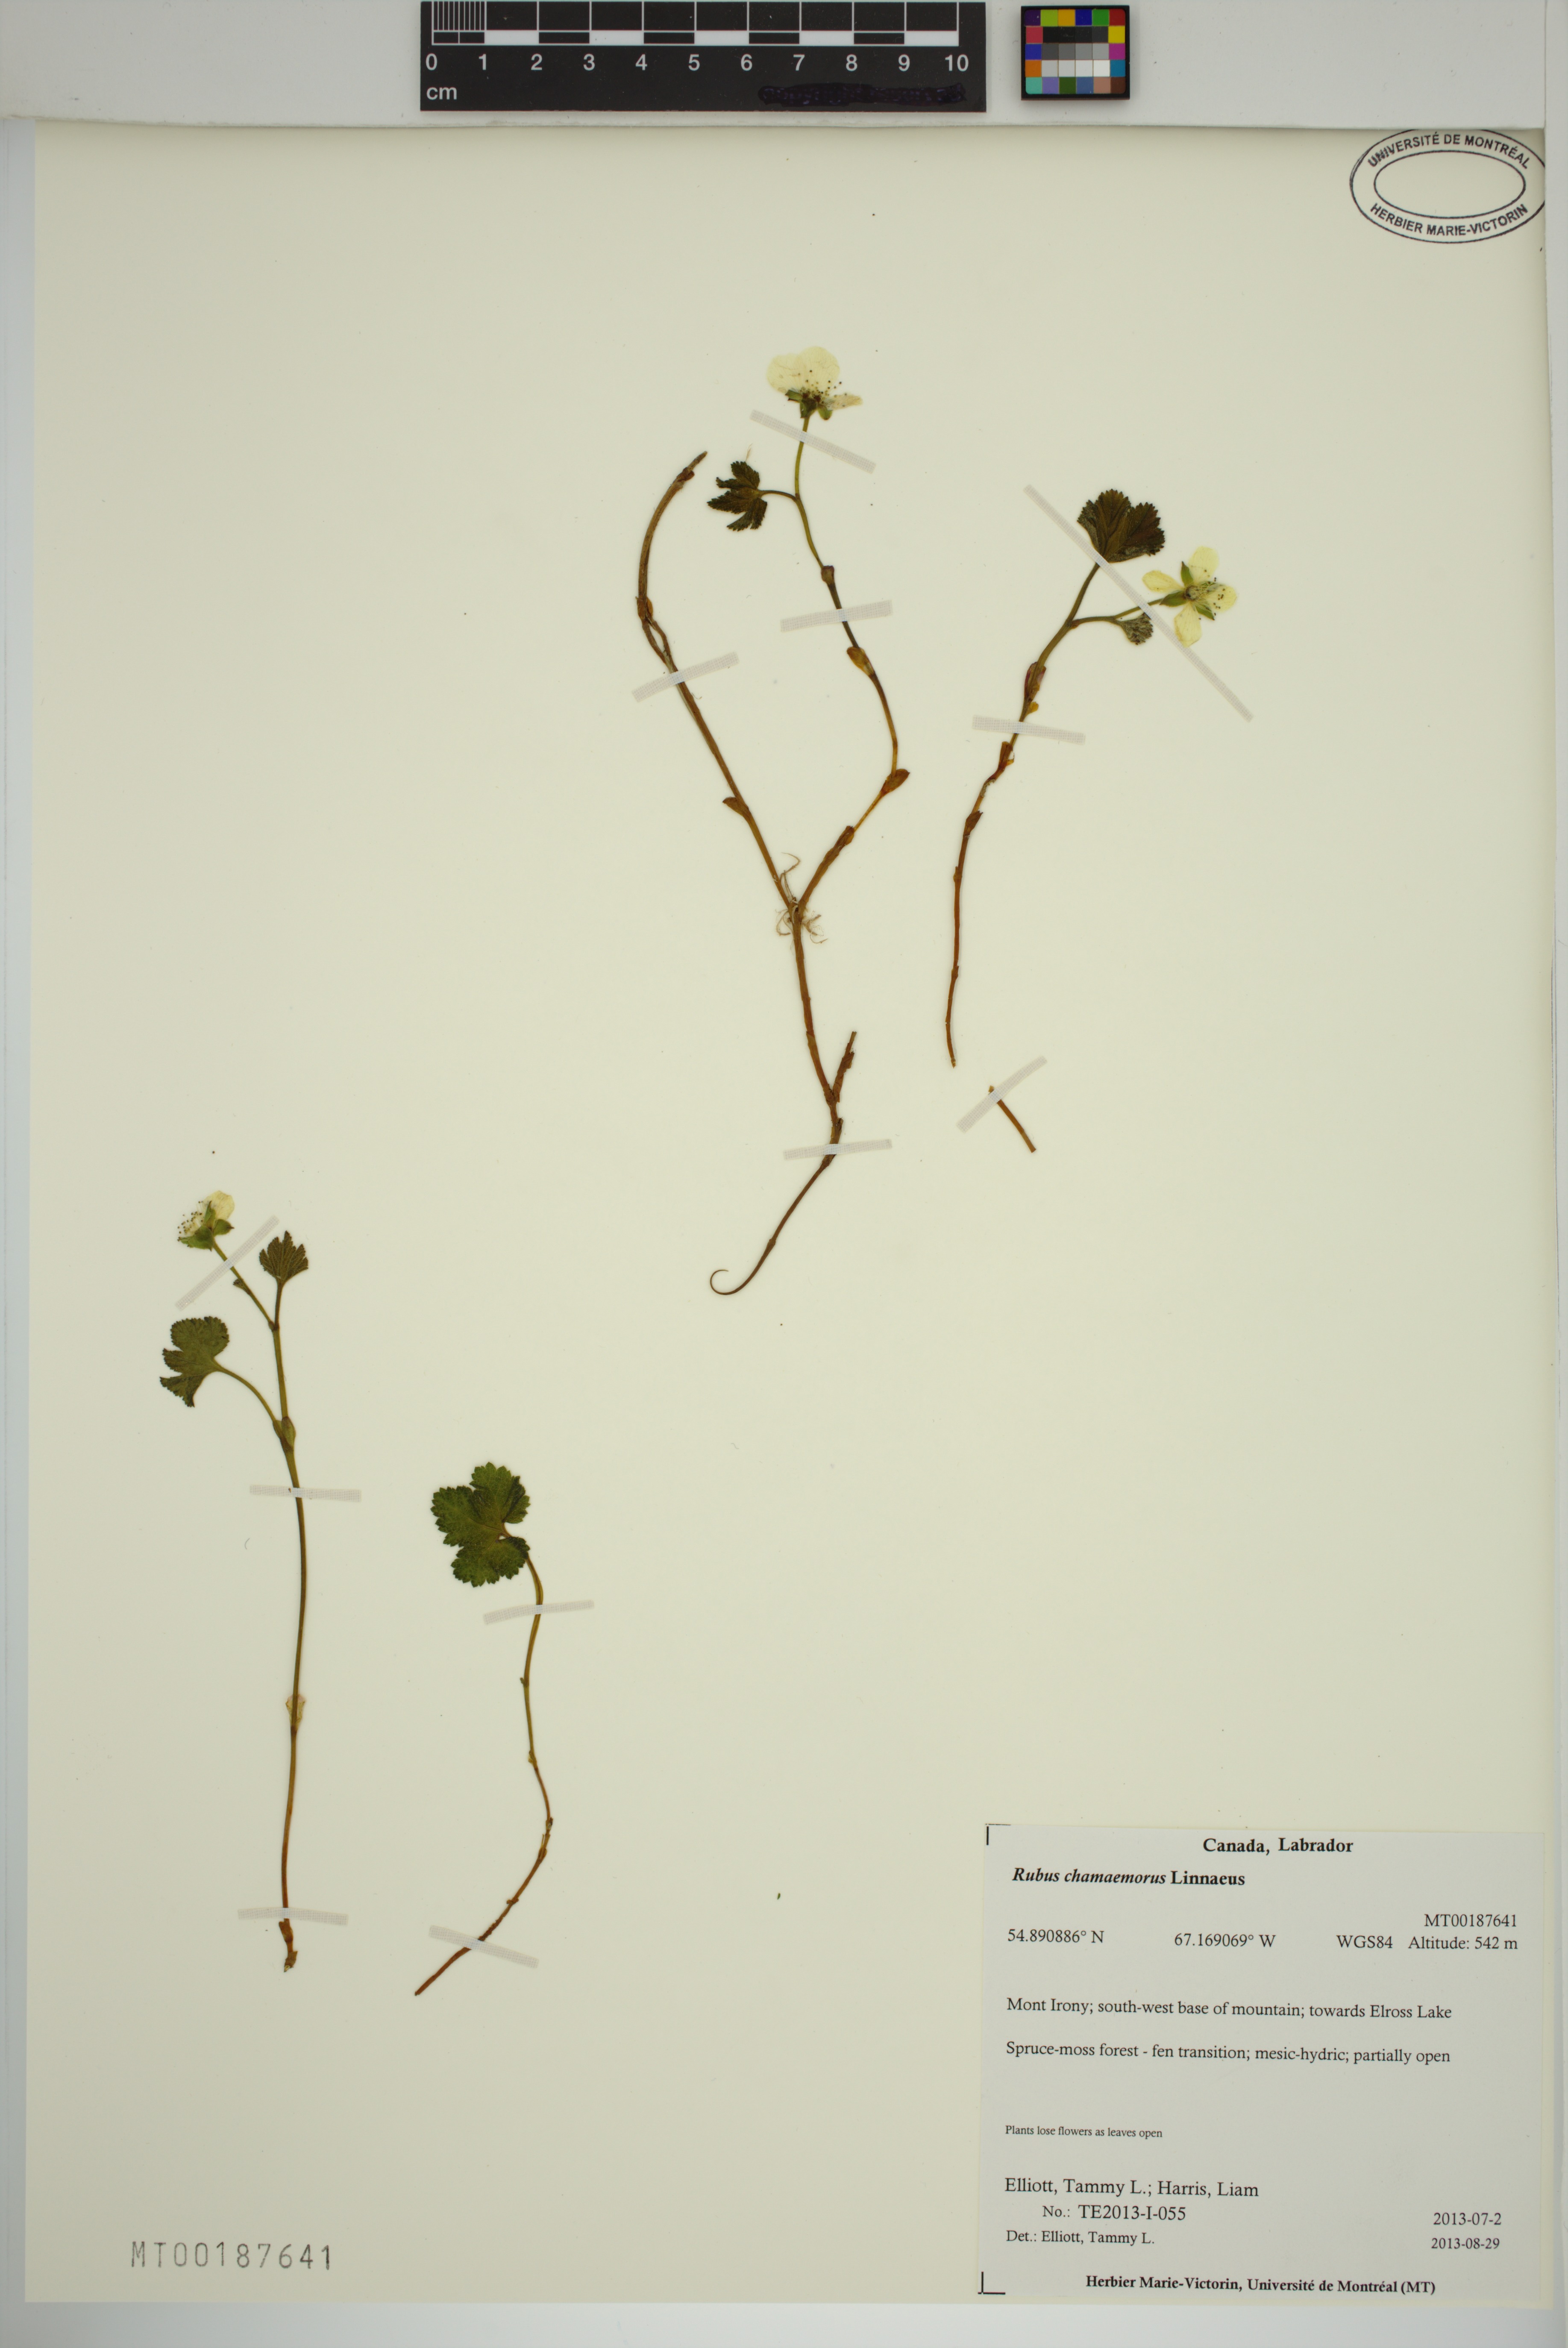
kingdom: Plantae
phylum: Tracheophyta
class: Magnoliopsida
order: Rosales
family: Rosaceae
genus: Rubus
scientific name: Rubus chamaemorus
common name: Cloudberry
